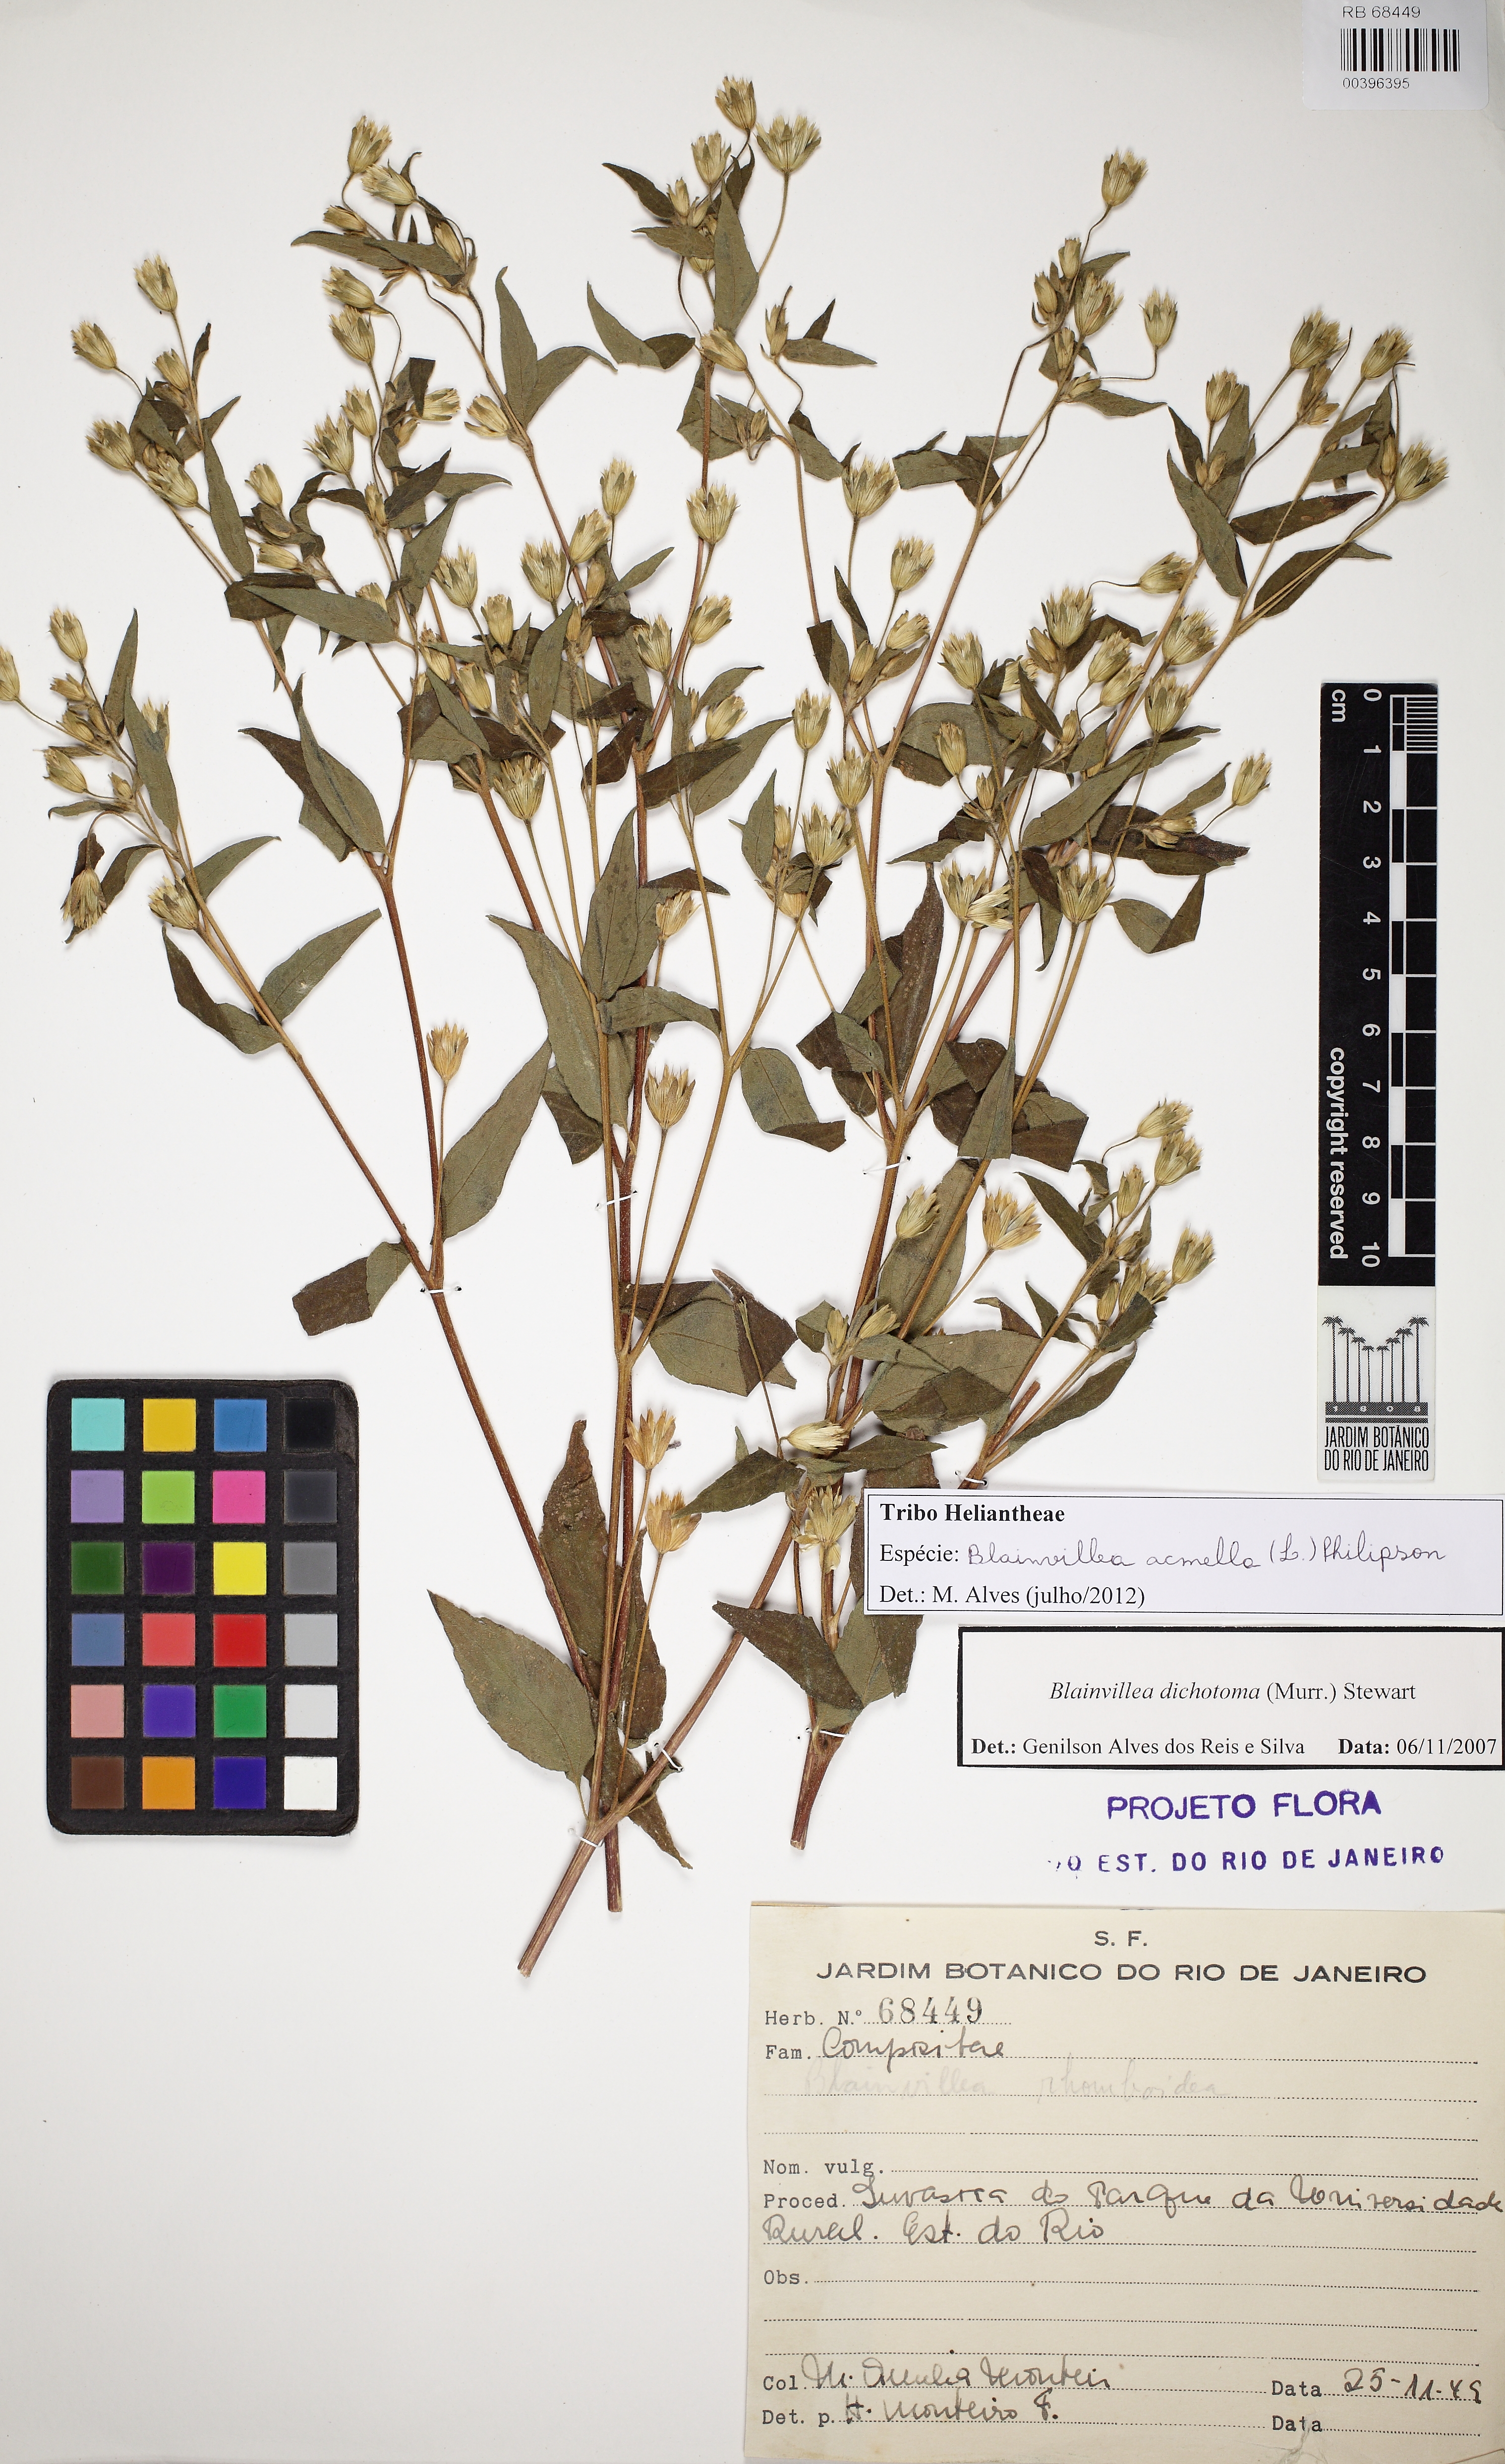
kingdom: Plantae
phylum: Tracheophyta
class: Magnoliopsida
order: Asterales
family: Asteraceae
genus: Blainvillea
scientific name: Blainvillea acmella
